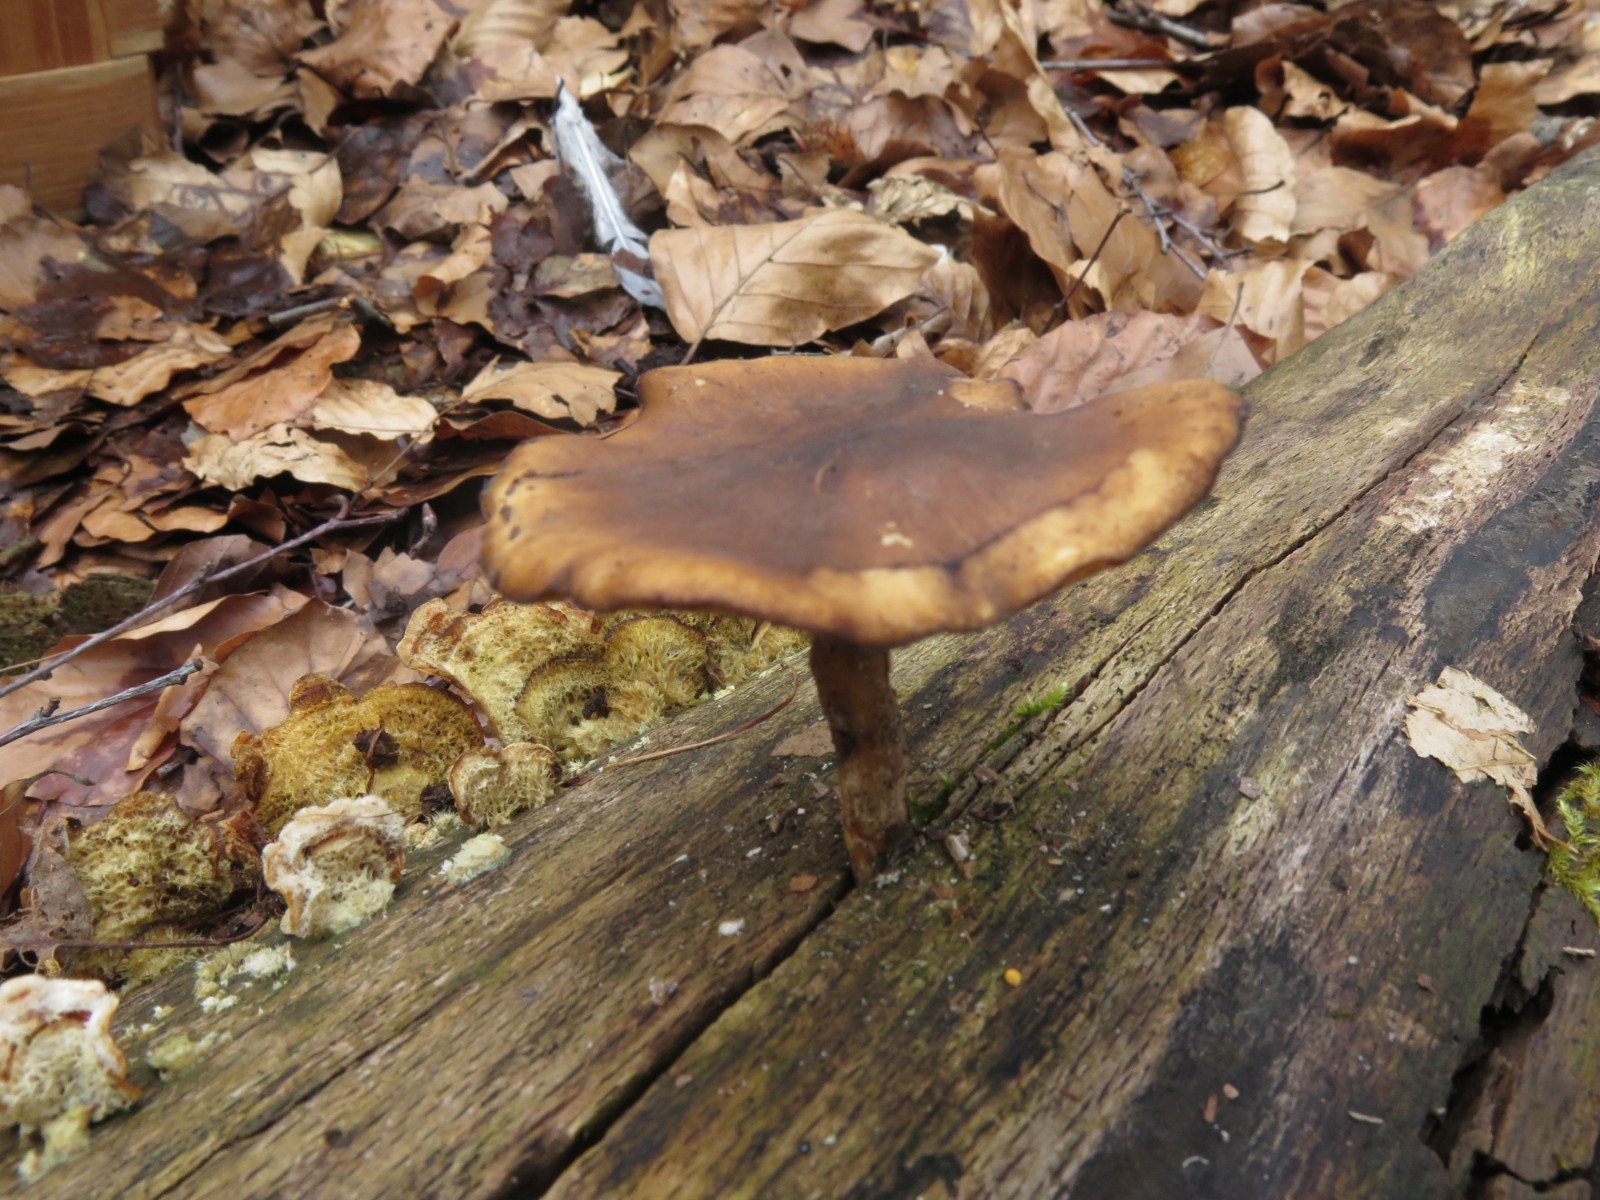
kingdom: Fungi
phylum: Basidiomycota
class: Agaricomycetes
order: Polyporales
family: Polyporaceae
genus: Lentinus
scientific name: Lentinus brumalis
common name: vinter-stilkporesvamp
